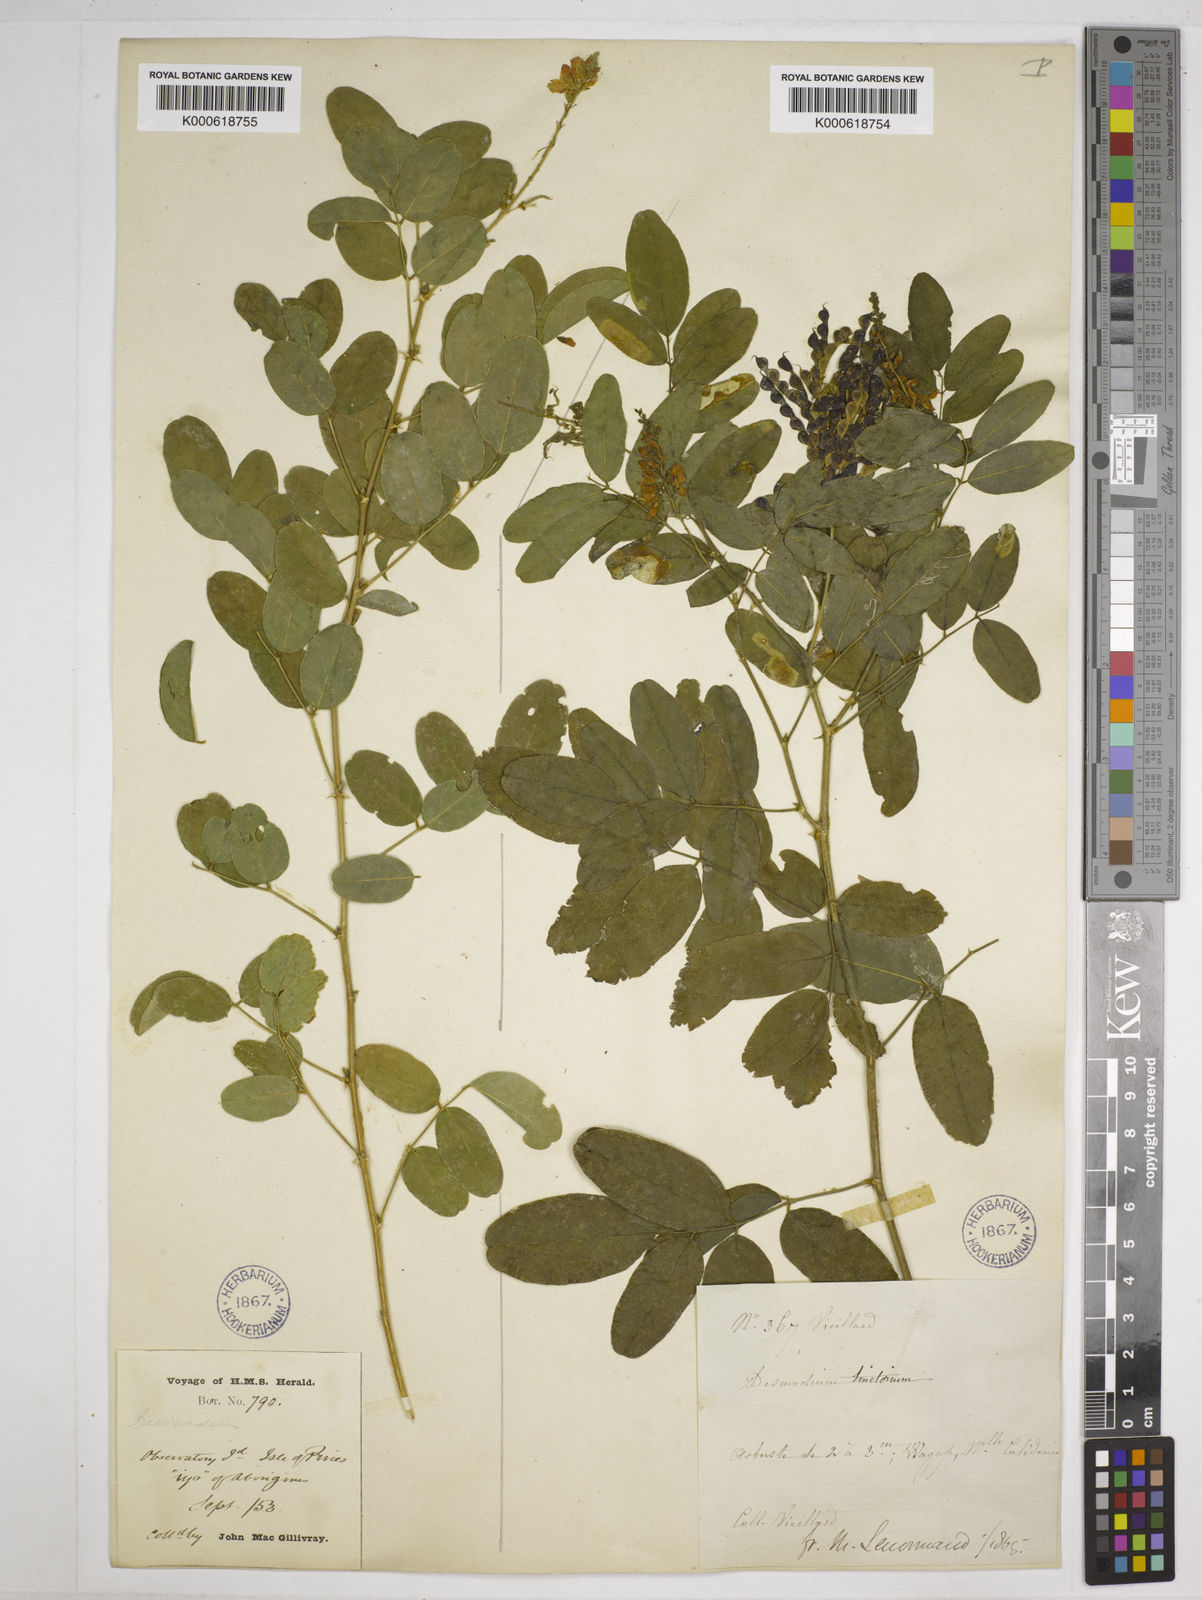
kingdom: Plantae
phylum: Tracheophyta
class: Magnoliopsida
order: Fabales
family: Fabaceae
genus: Desmodium
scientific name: Desmodium
